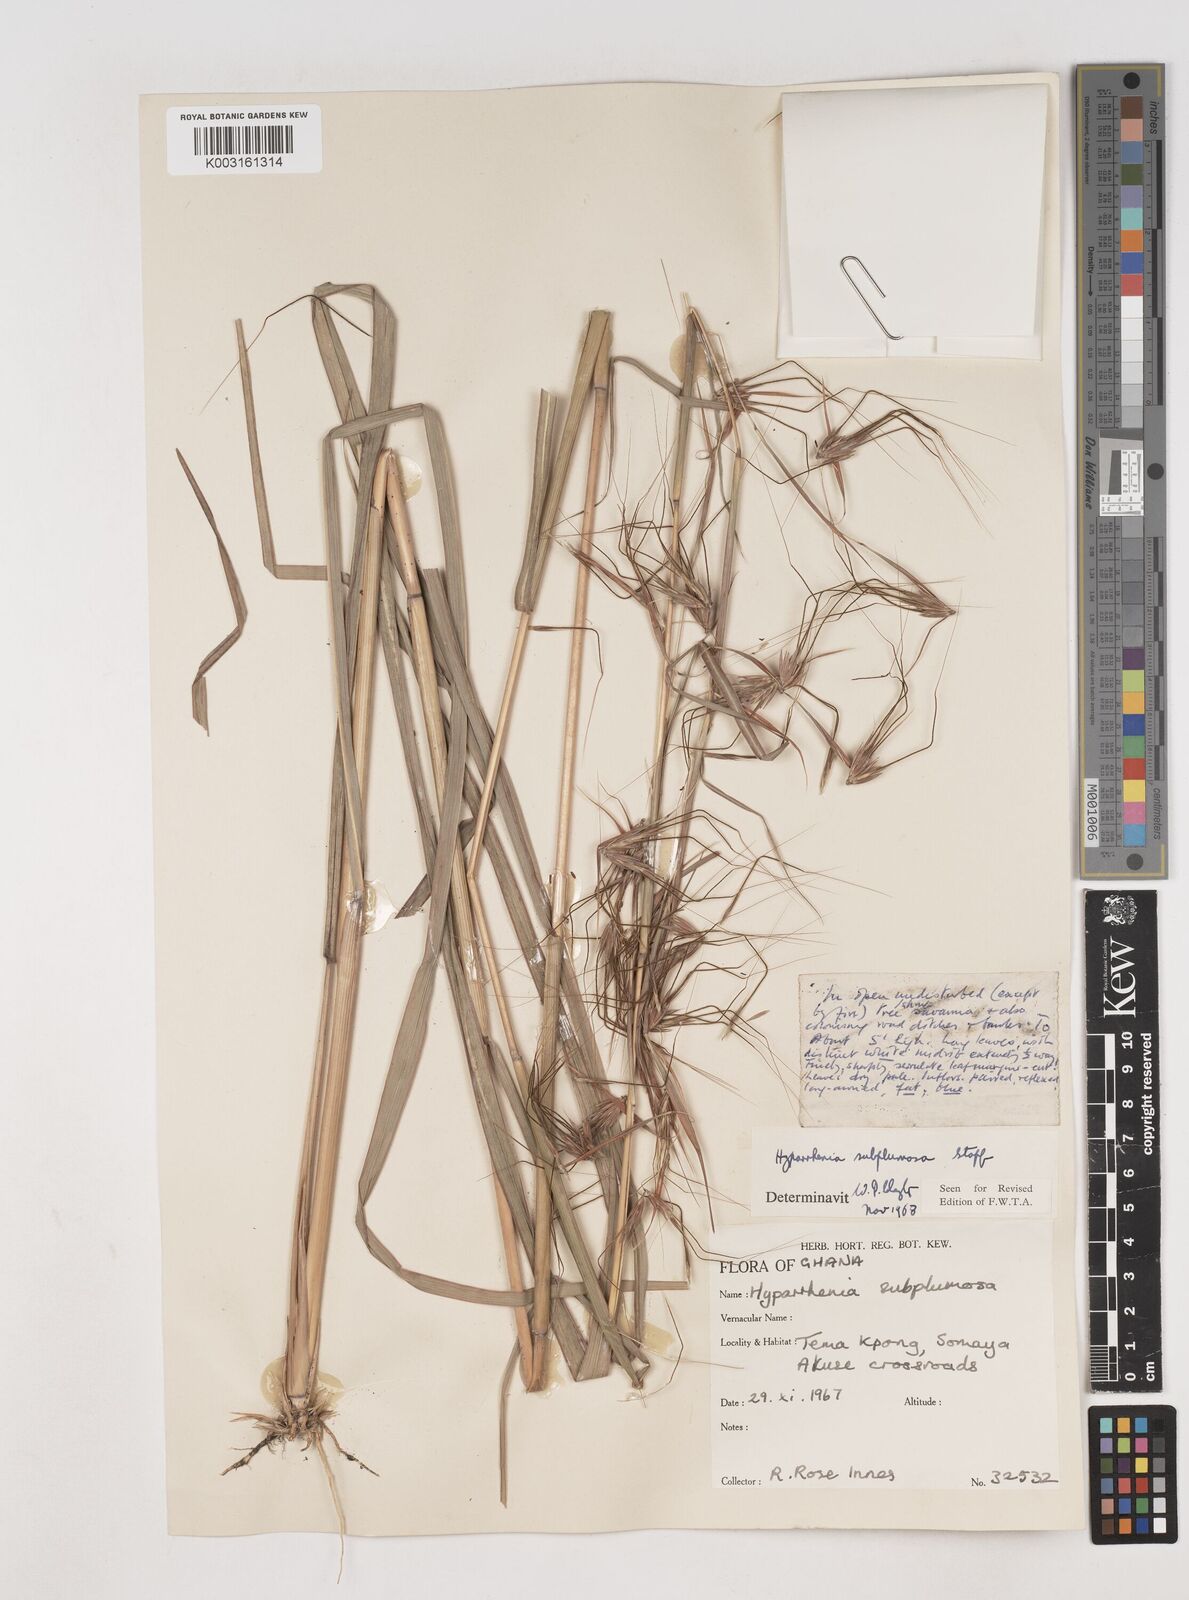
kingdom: Plantae
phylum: Tracheophyta
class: Liliopsida
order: Poales
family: Poaceae
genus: Hyparrhenia
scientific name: Hyparrhenia subplumosa
